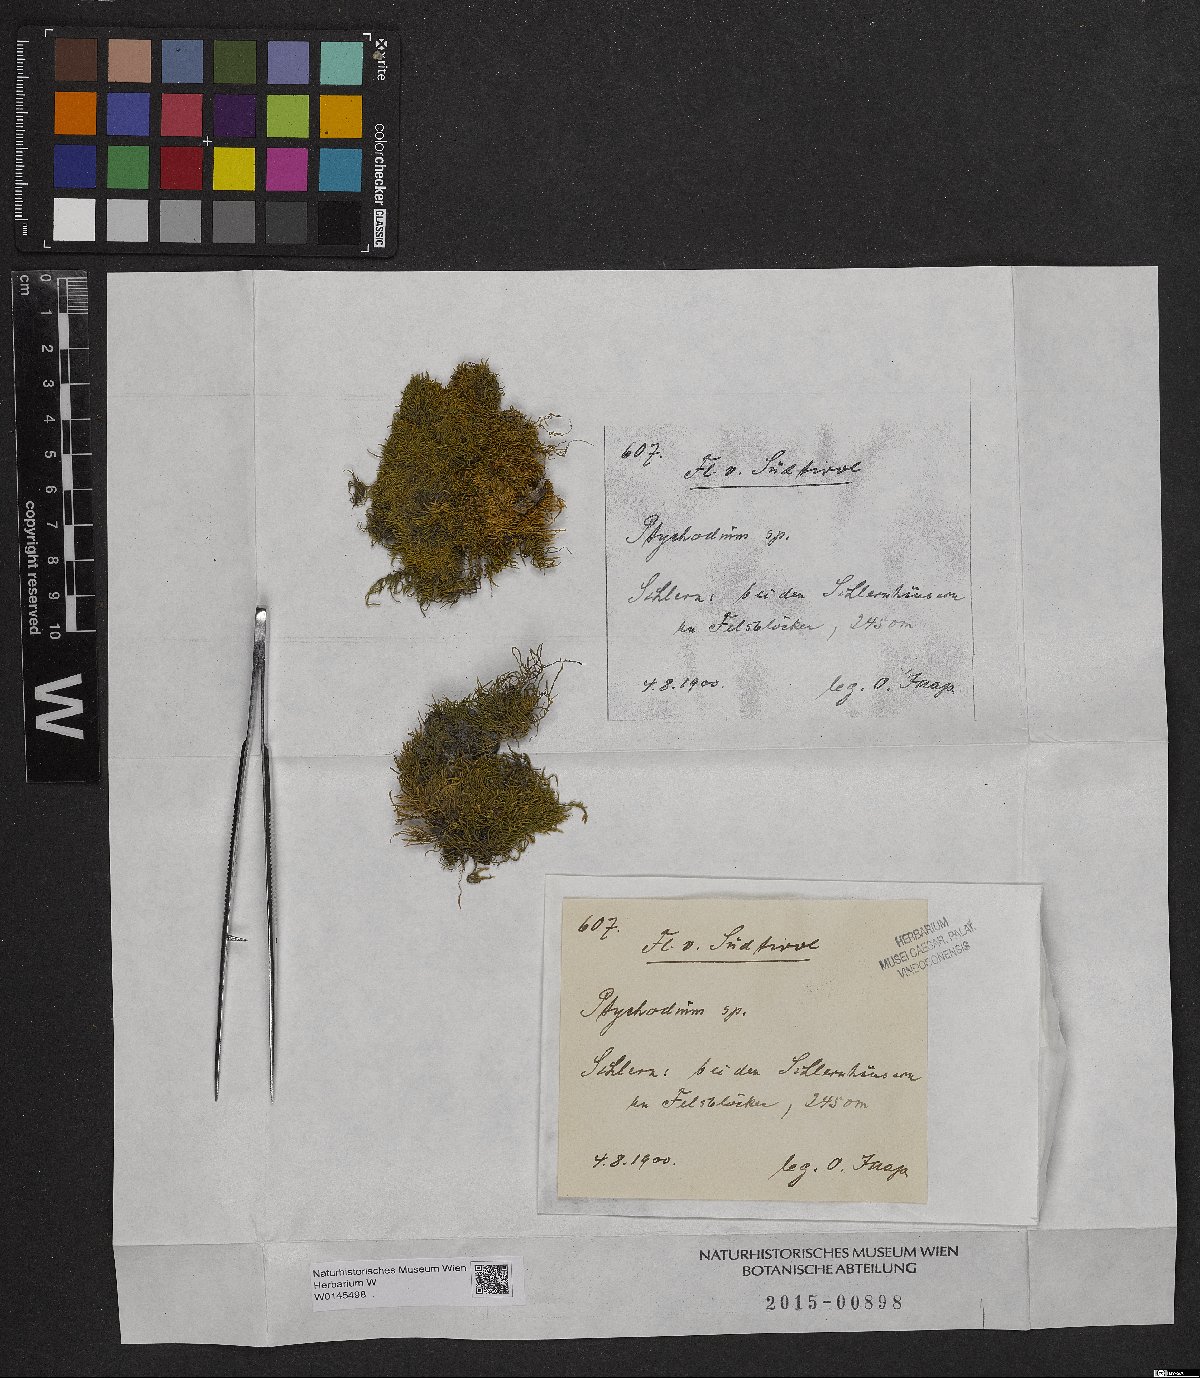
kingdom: Plantae
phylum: Bryophyta
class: Bryopsida
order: Hypnales
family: Pseudoleskeaceae
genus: Lescuraea
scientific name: Lescuraea
